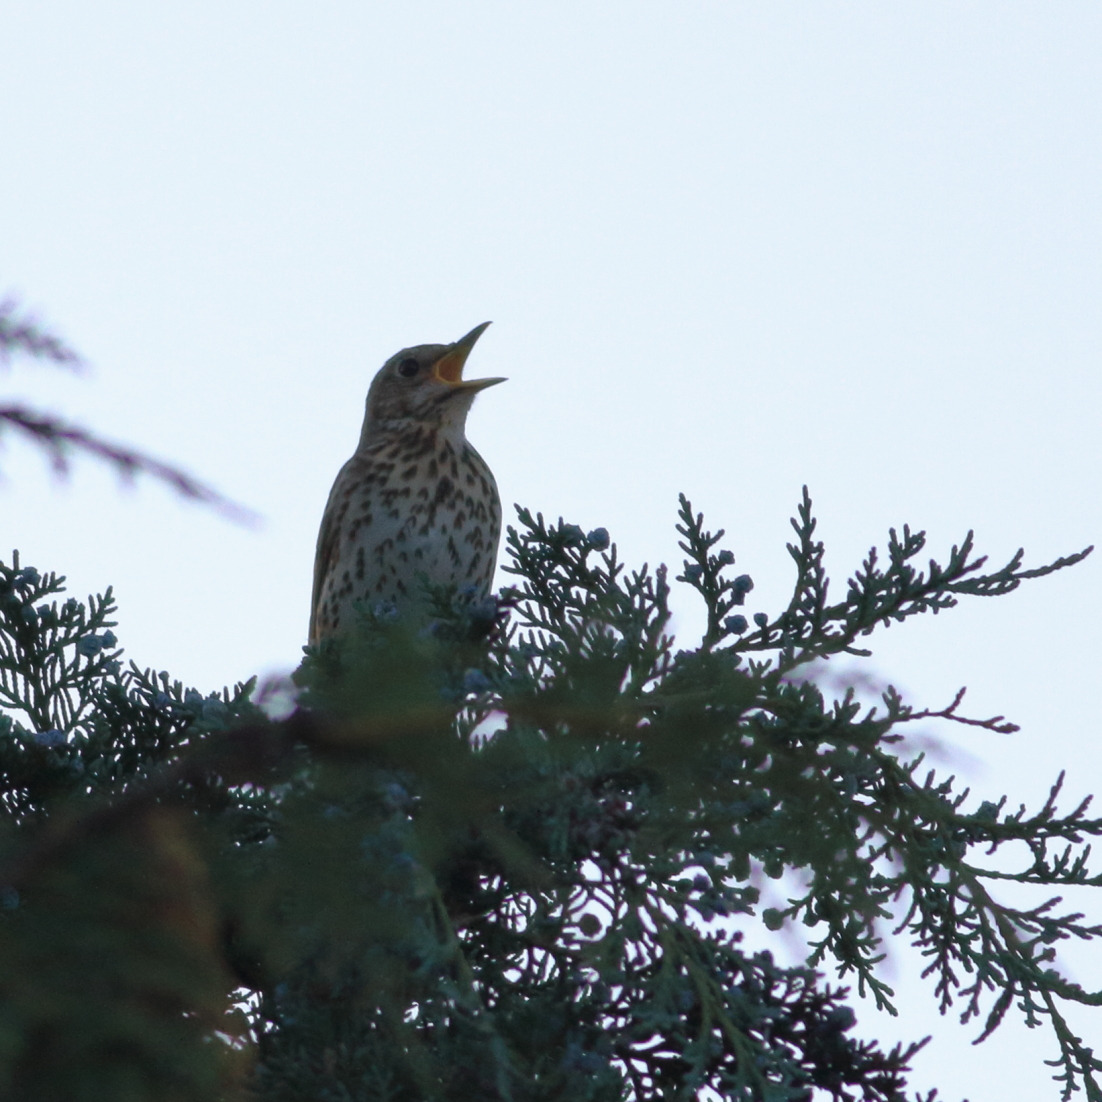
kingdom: Animalia
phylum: Chordata
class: Aves
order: Passeriformes
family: Turdidae
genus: Turdus
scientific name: Turdus philomelos
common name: Sangdrossel
